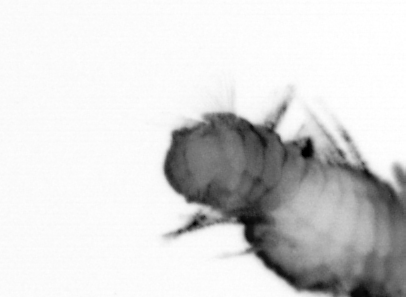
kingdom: Animalia
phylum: Annelida
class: Polychaeta
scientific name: Polychaeta
